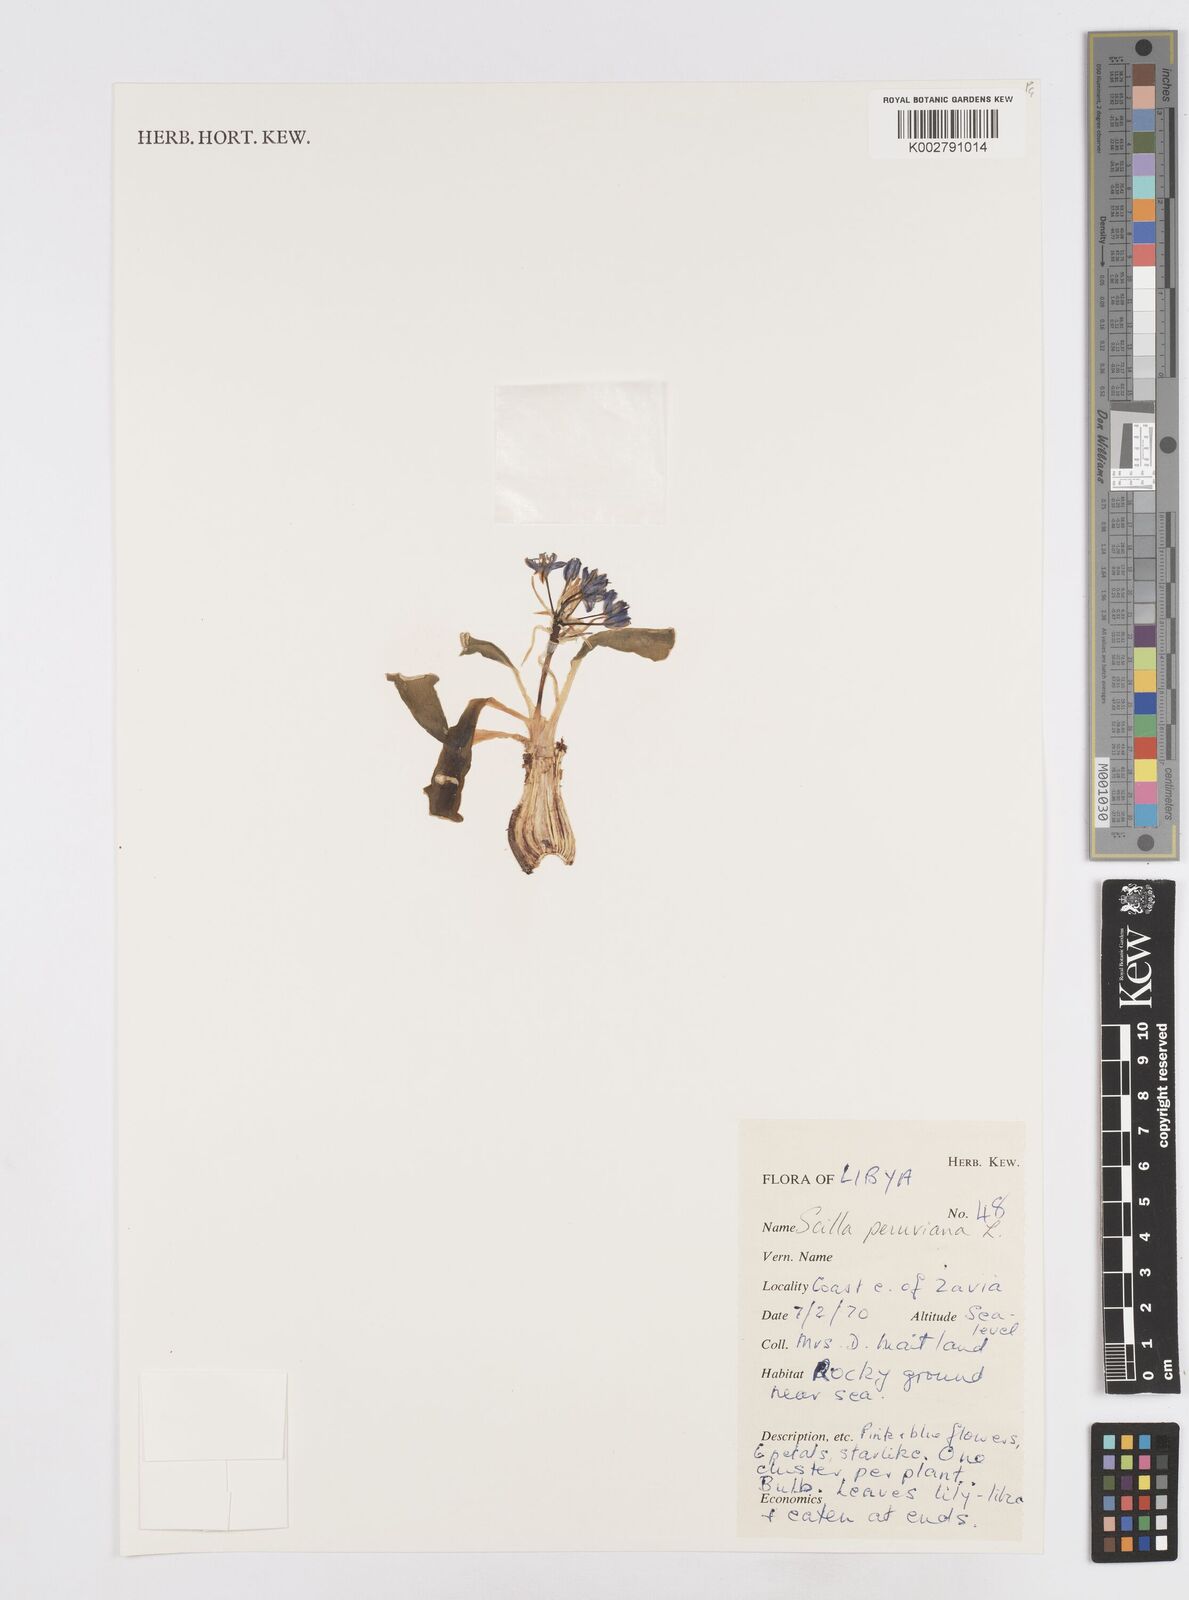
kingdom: Plantae
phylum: Tracheophyta
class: Liliopsida
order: Asparagales
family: Asparagaceae
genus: Scilla
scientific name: Scilla peruviana
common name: Portuguese squill
